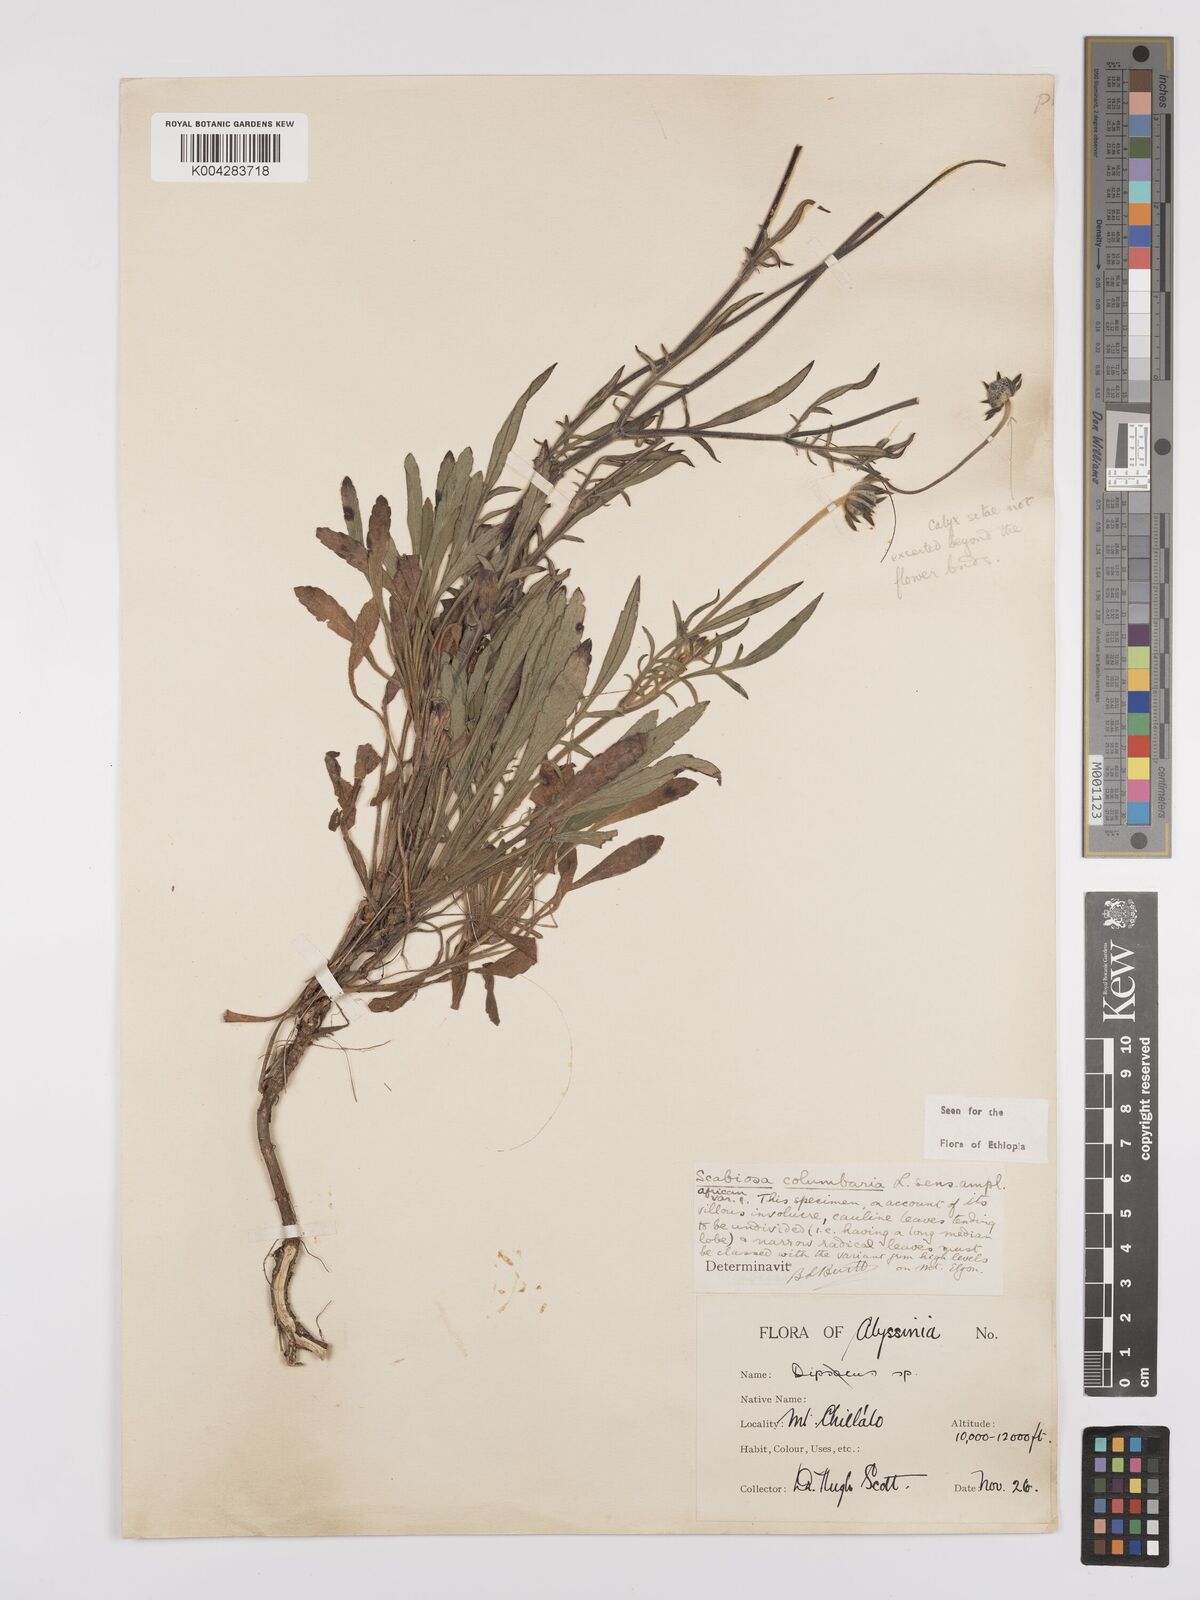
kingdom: Plantae
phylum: Tracheophyta
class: Magnoliopsida
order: Dipsacales
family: Caprifoliaceae
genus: Scabiosa
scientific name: Scabiosa columbaria
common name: Small scabious
